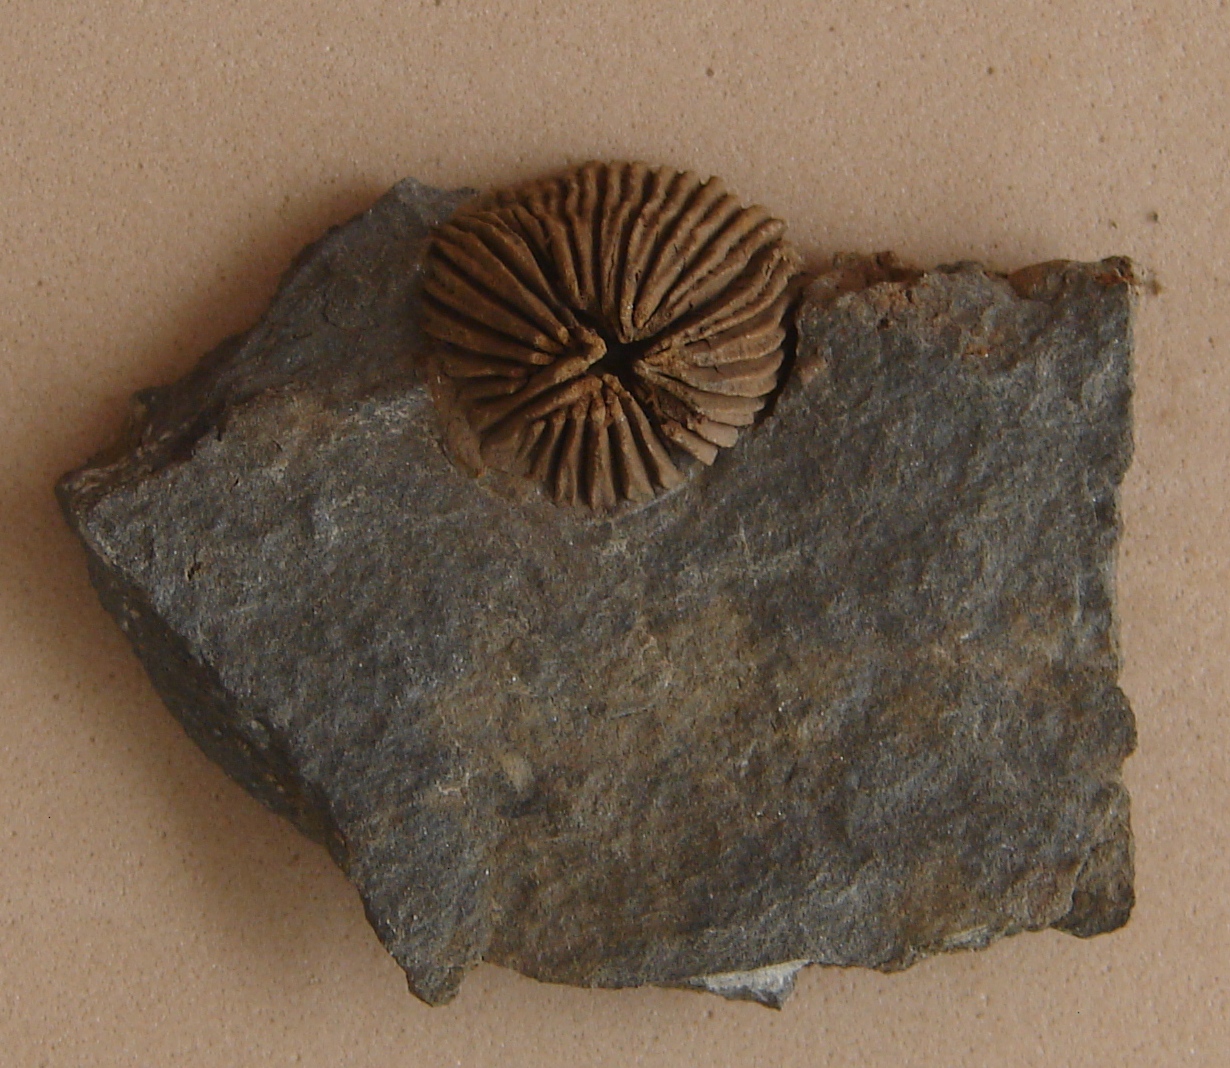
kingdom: Animalia
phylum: Cnidaria
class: Anthozoa
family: Hapsiphyllidae
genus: Hapsiphyllum
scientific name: Hapsiphyllum
